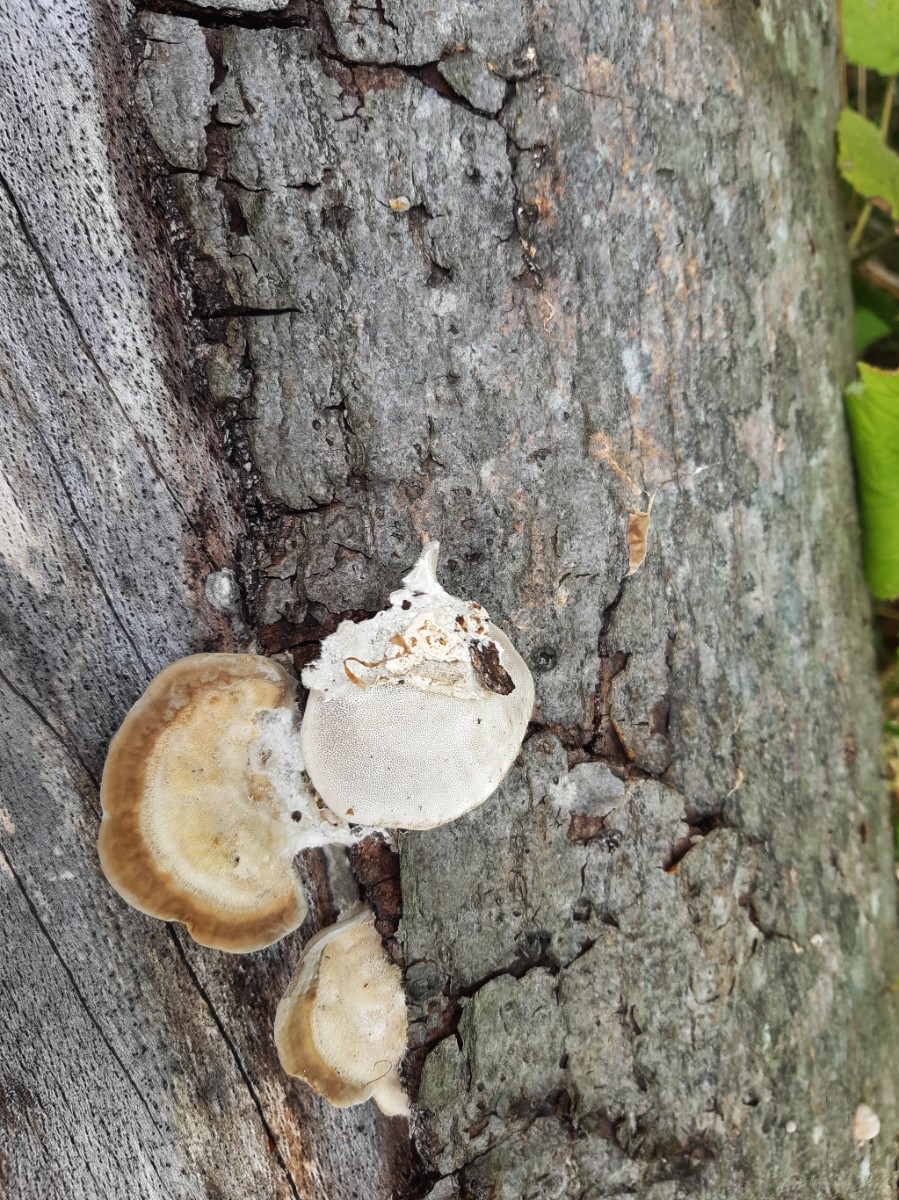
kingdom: Fungi
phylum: Basidiomycota
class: Agaricomycetes
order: Polyporales
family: Polyporaceae
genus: Trametes
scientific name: Trametes hirsuta
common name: håret læderporesvamp
